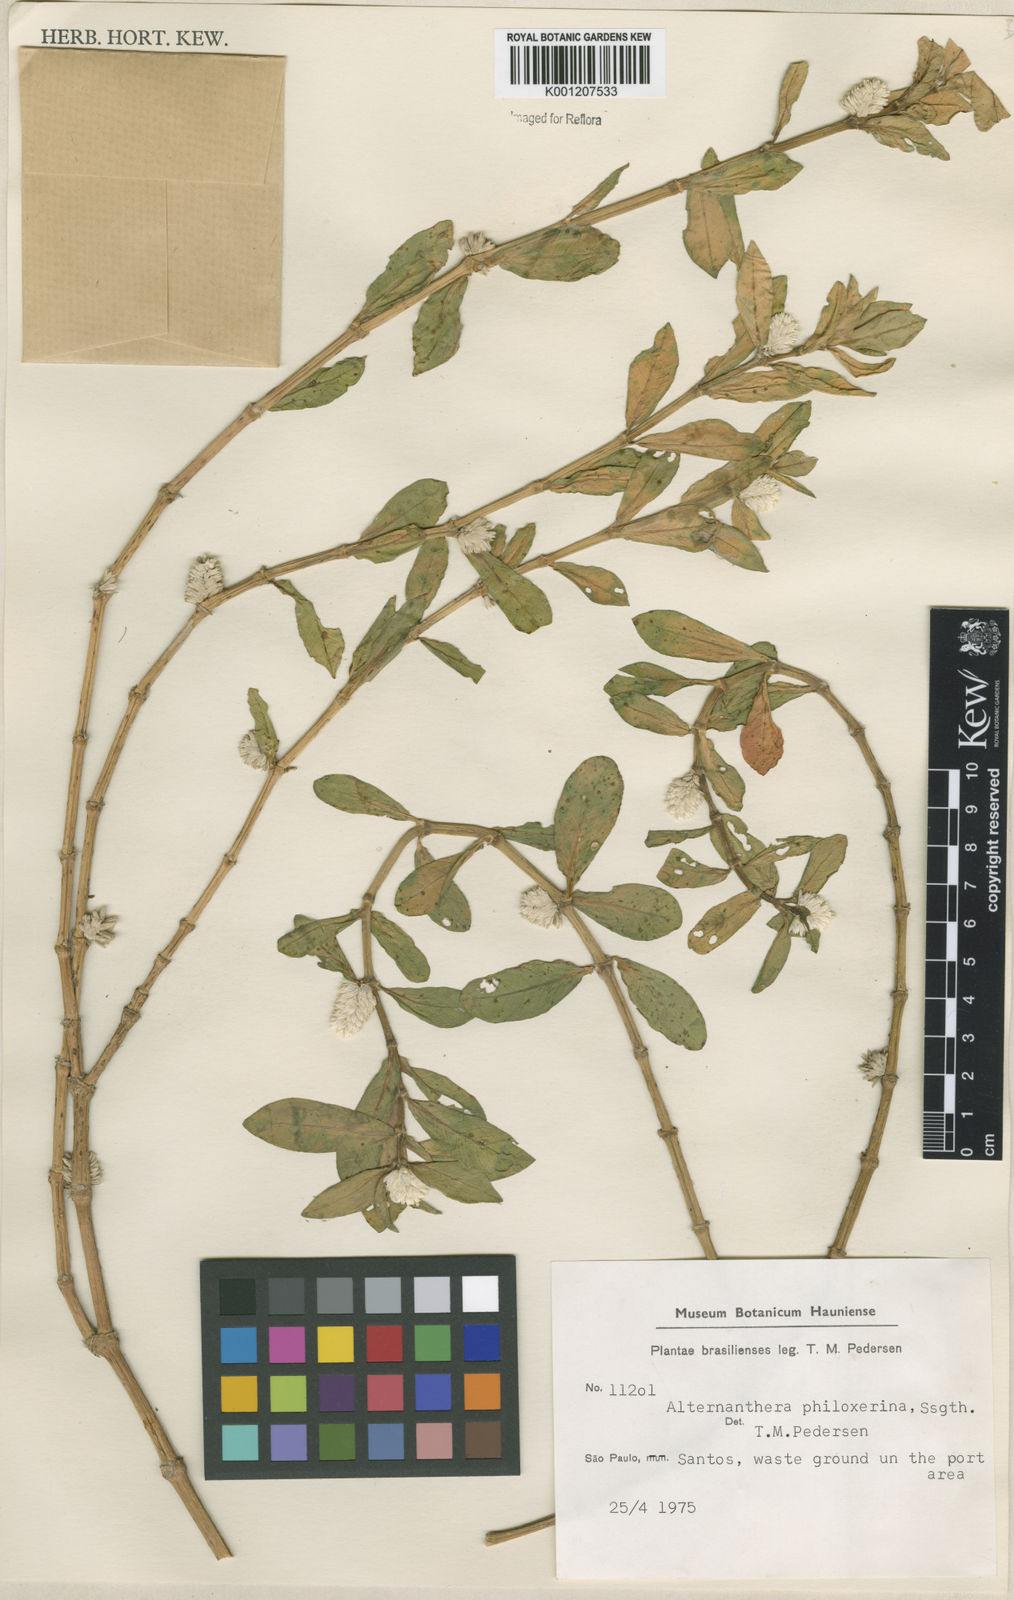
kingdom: Plantae
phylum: Tracheophyta
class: Magnoliopsida
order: Caryophyllales
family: Amaranthaceae
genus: Alternanthera
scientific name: Alternanthera philoxeroides
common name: Alligatorweed
